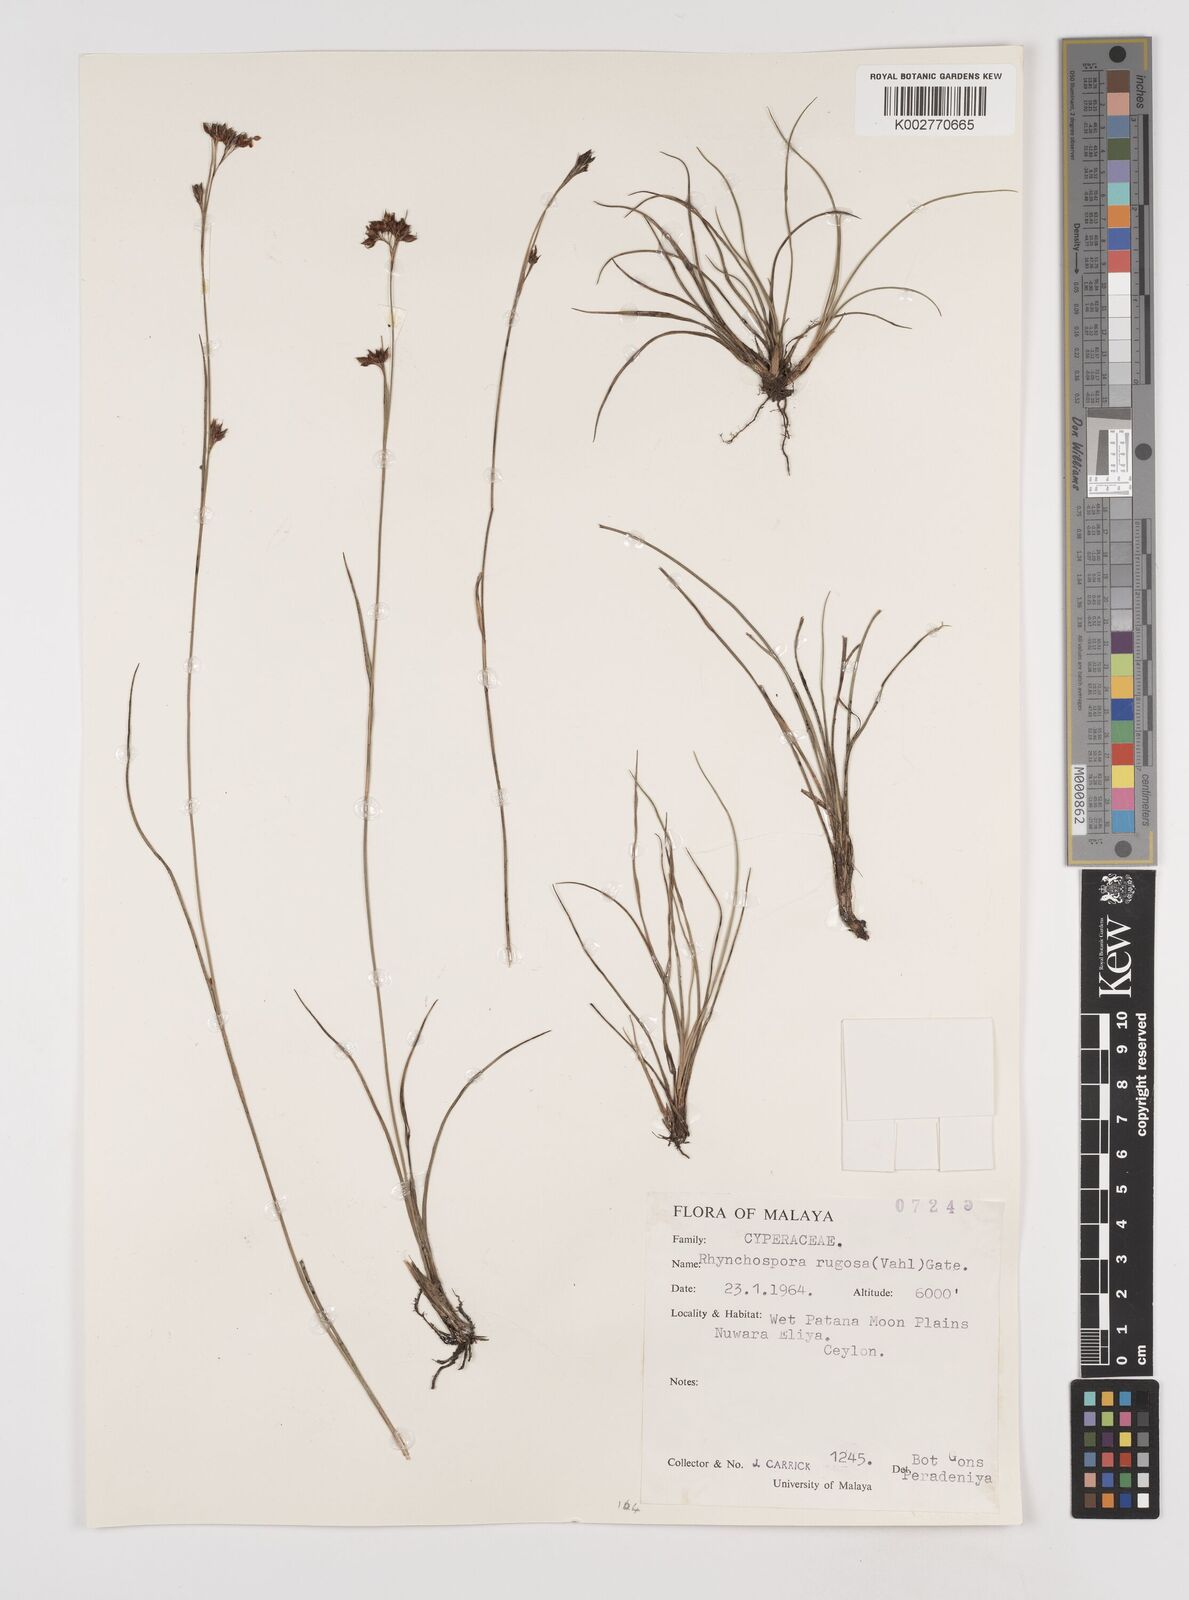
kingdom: Plantae
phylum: Tracheophyta
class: Liliopsida
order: Poales
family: Cyperaceae
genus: Rhynchospora
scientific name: Rhynchospora rugosa
